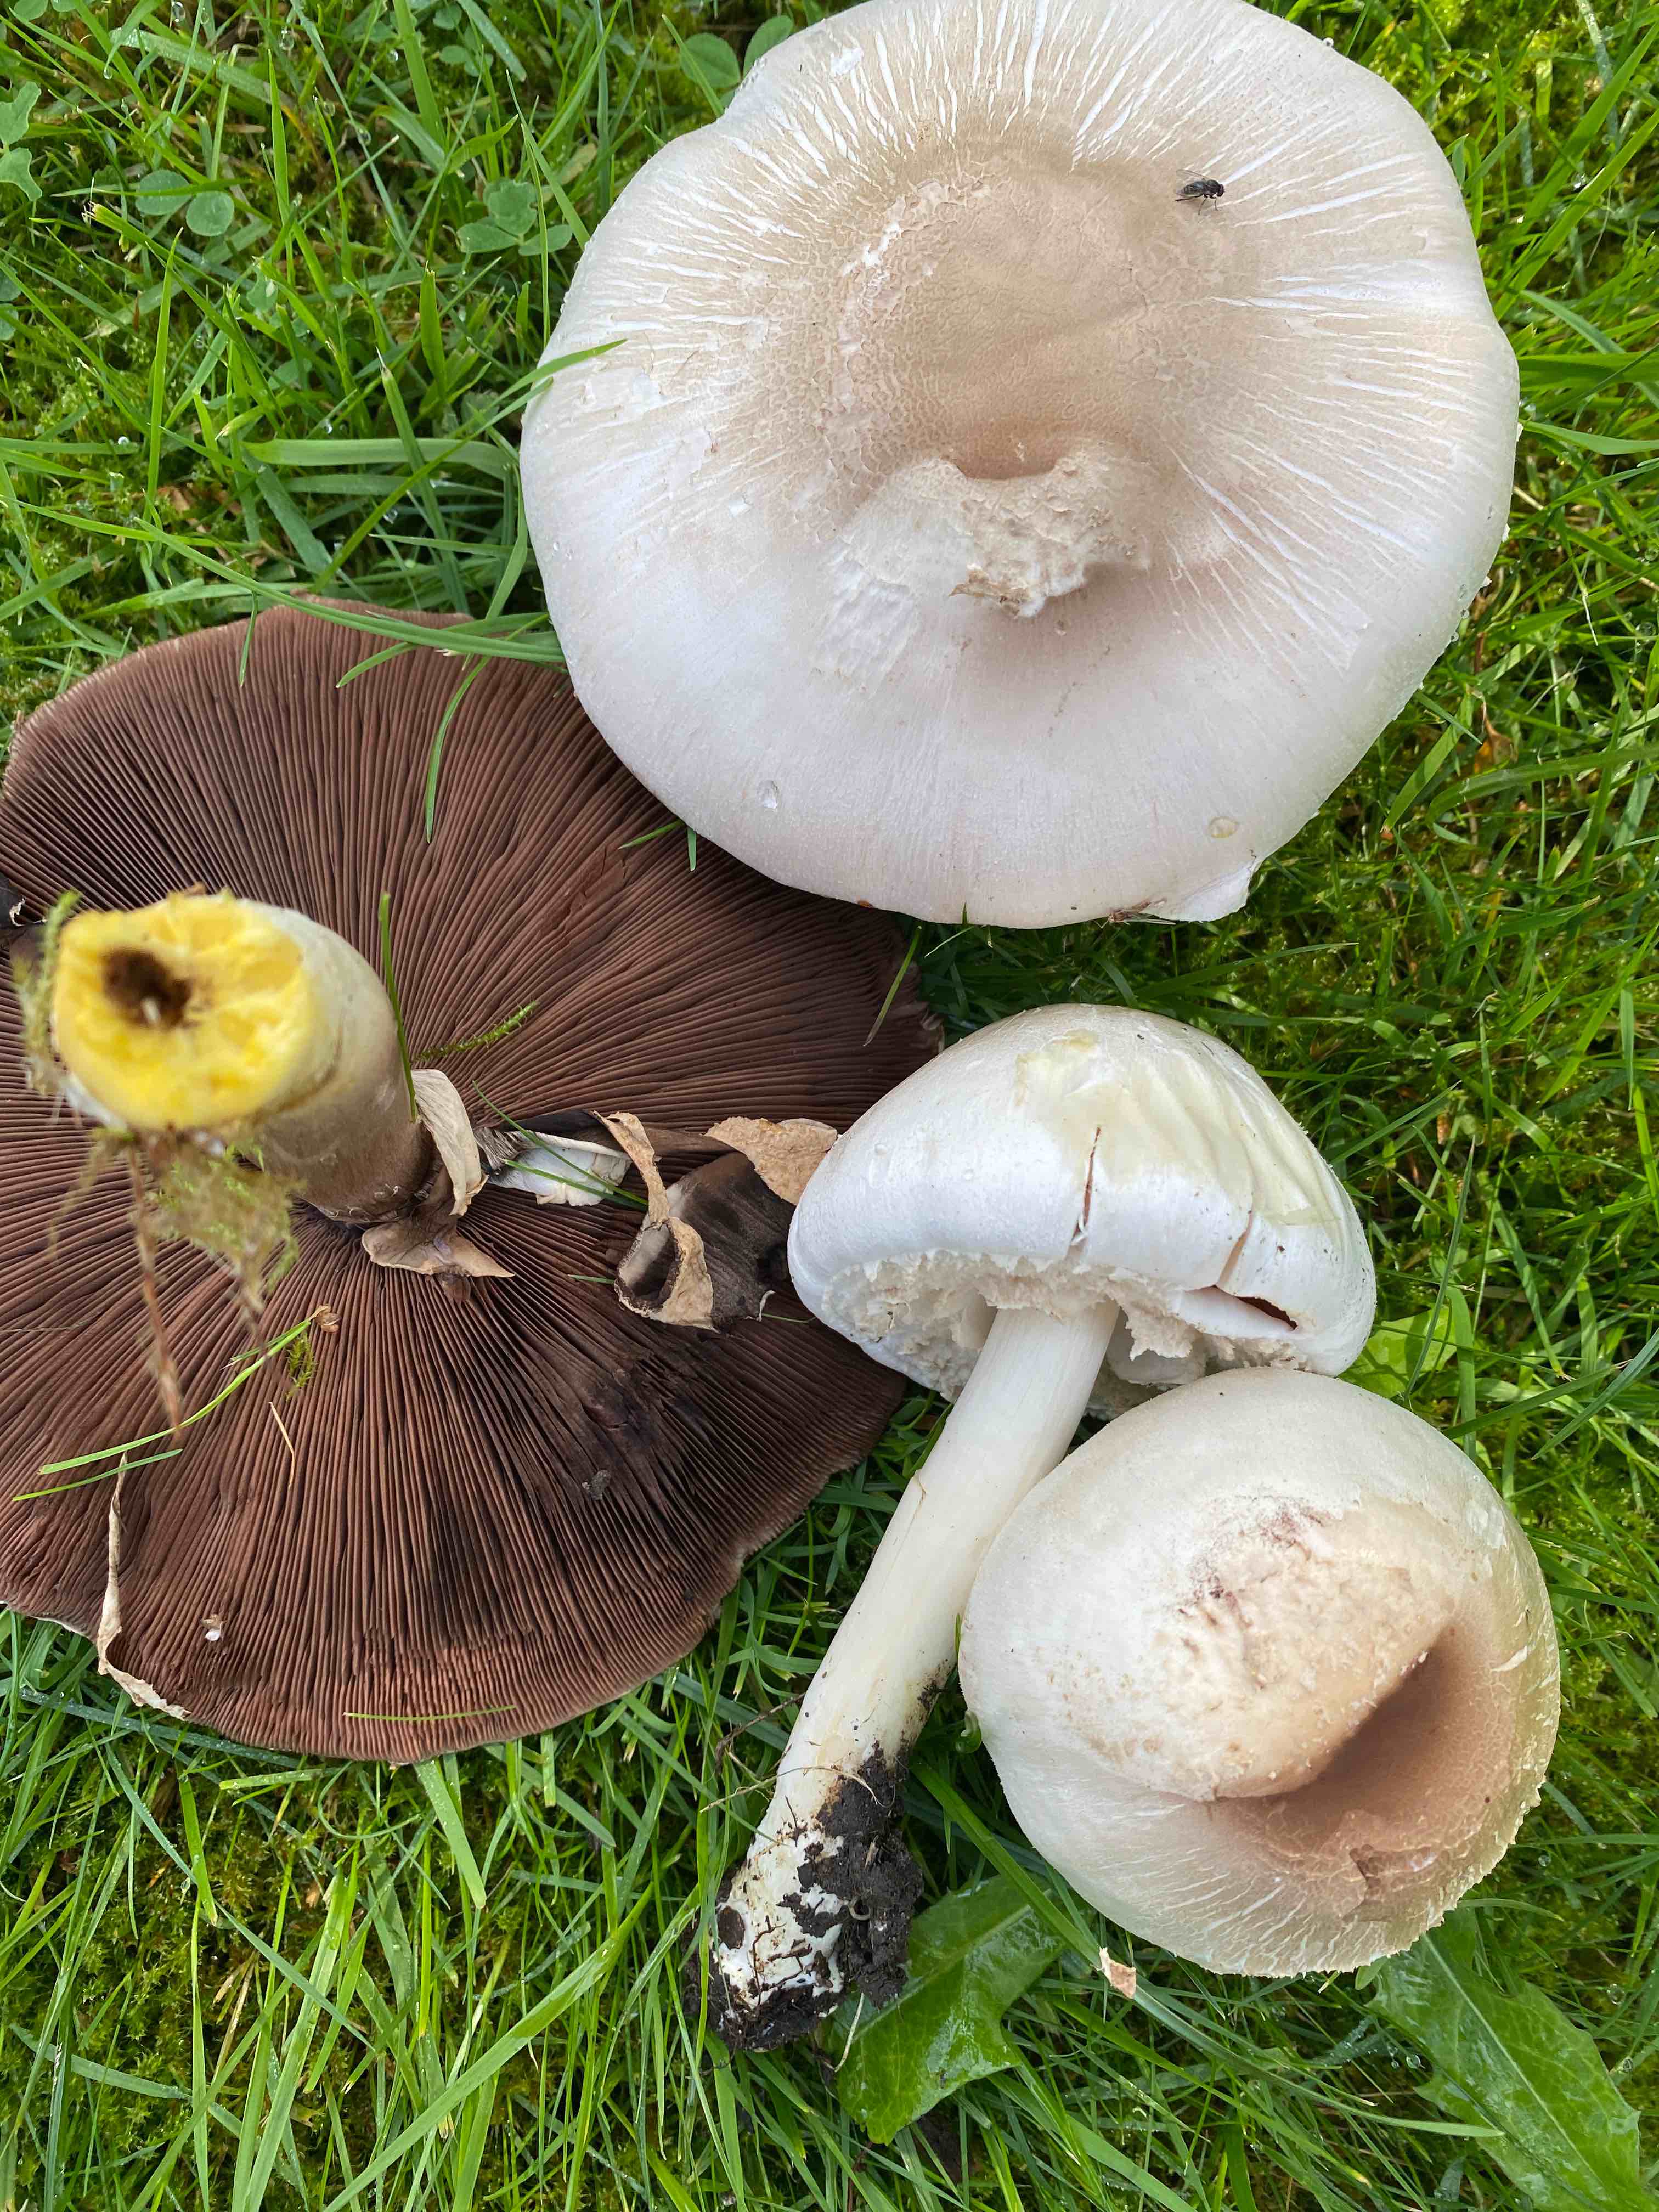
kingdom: Fungi
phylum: Basidiomycota
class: Agaricomycetes
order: Agaricales
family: Agaricaceae
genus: Agaricus
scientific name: Agaricus xanthodermus
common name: karbol-champignon
